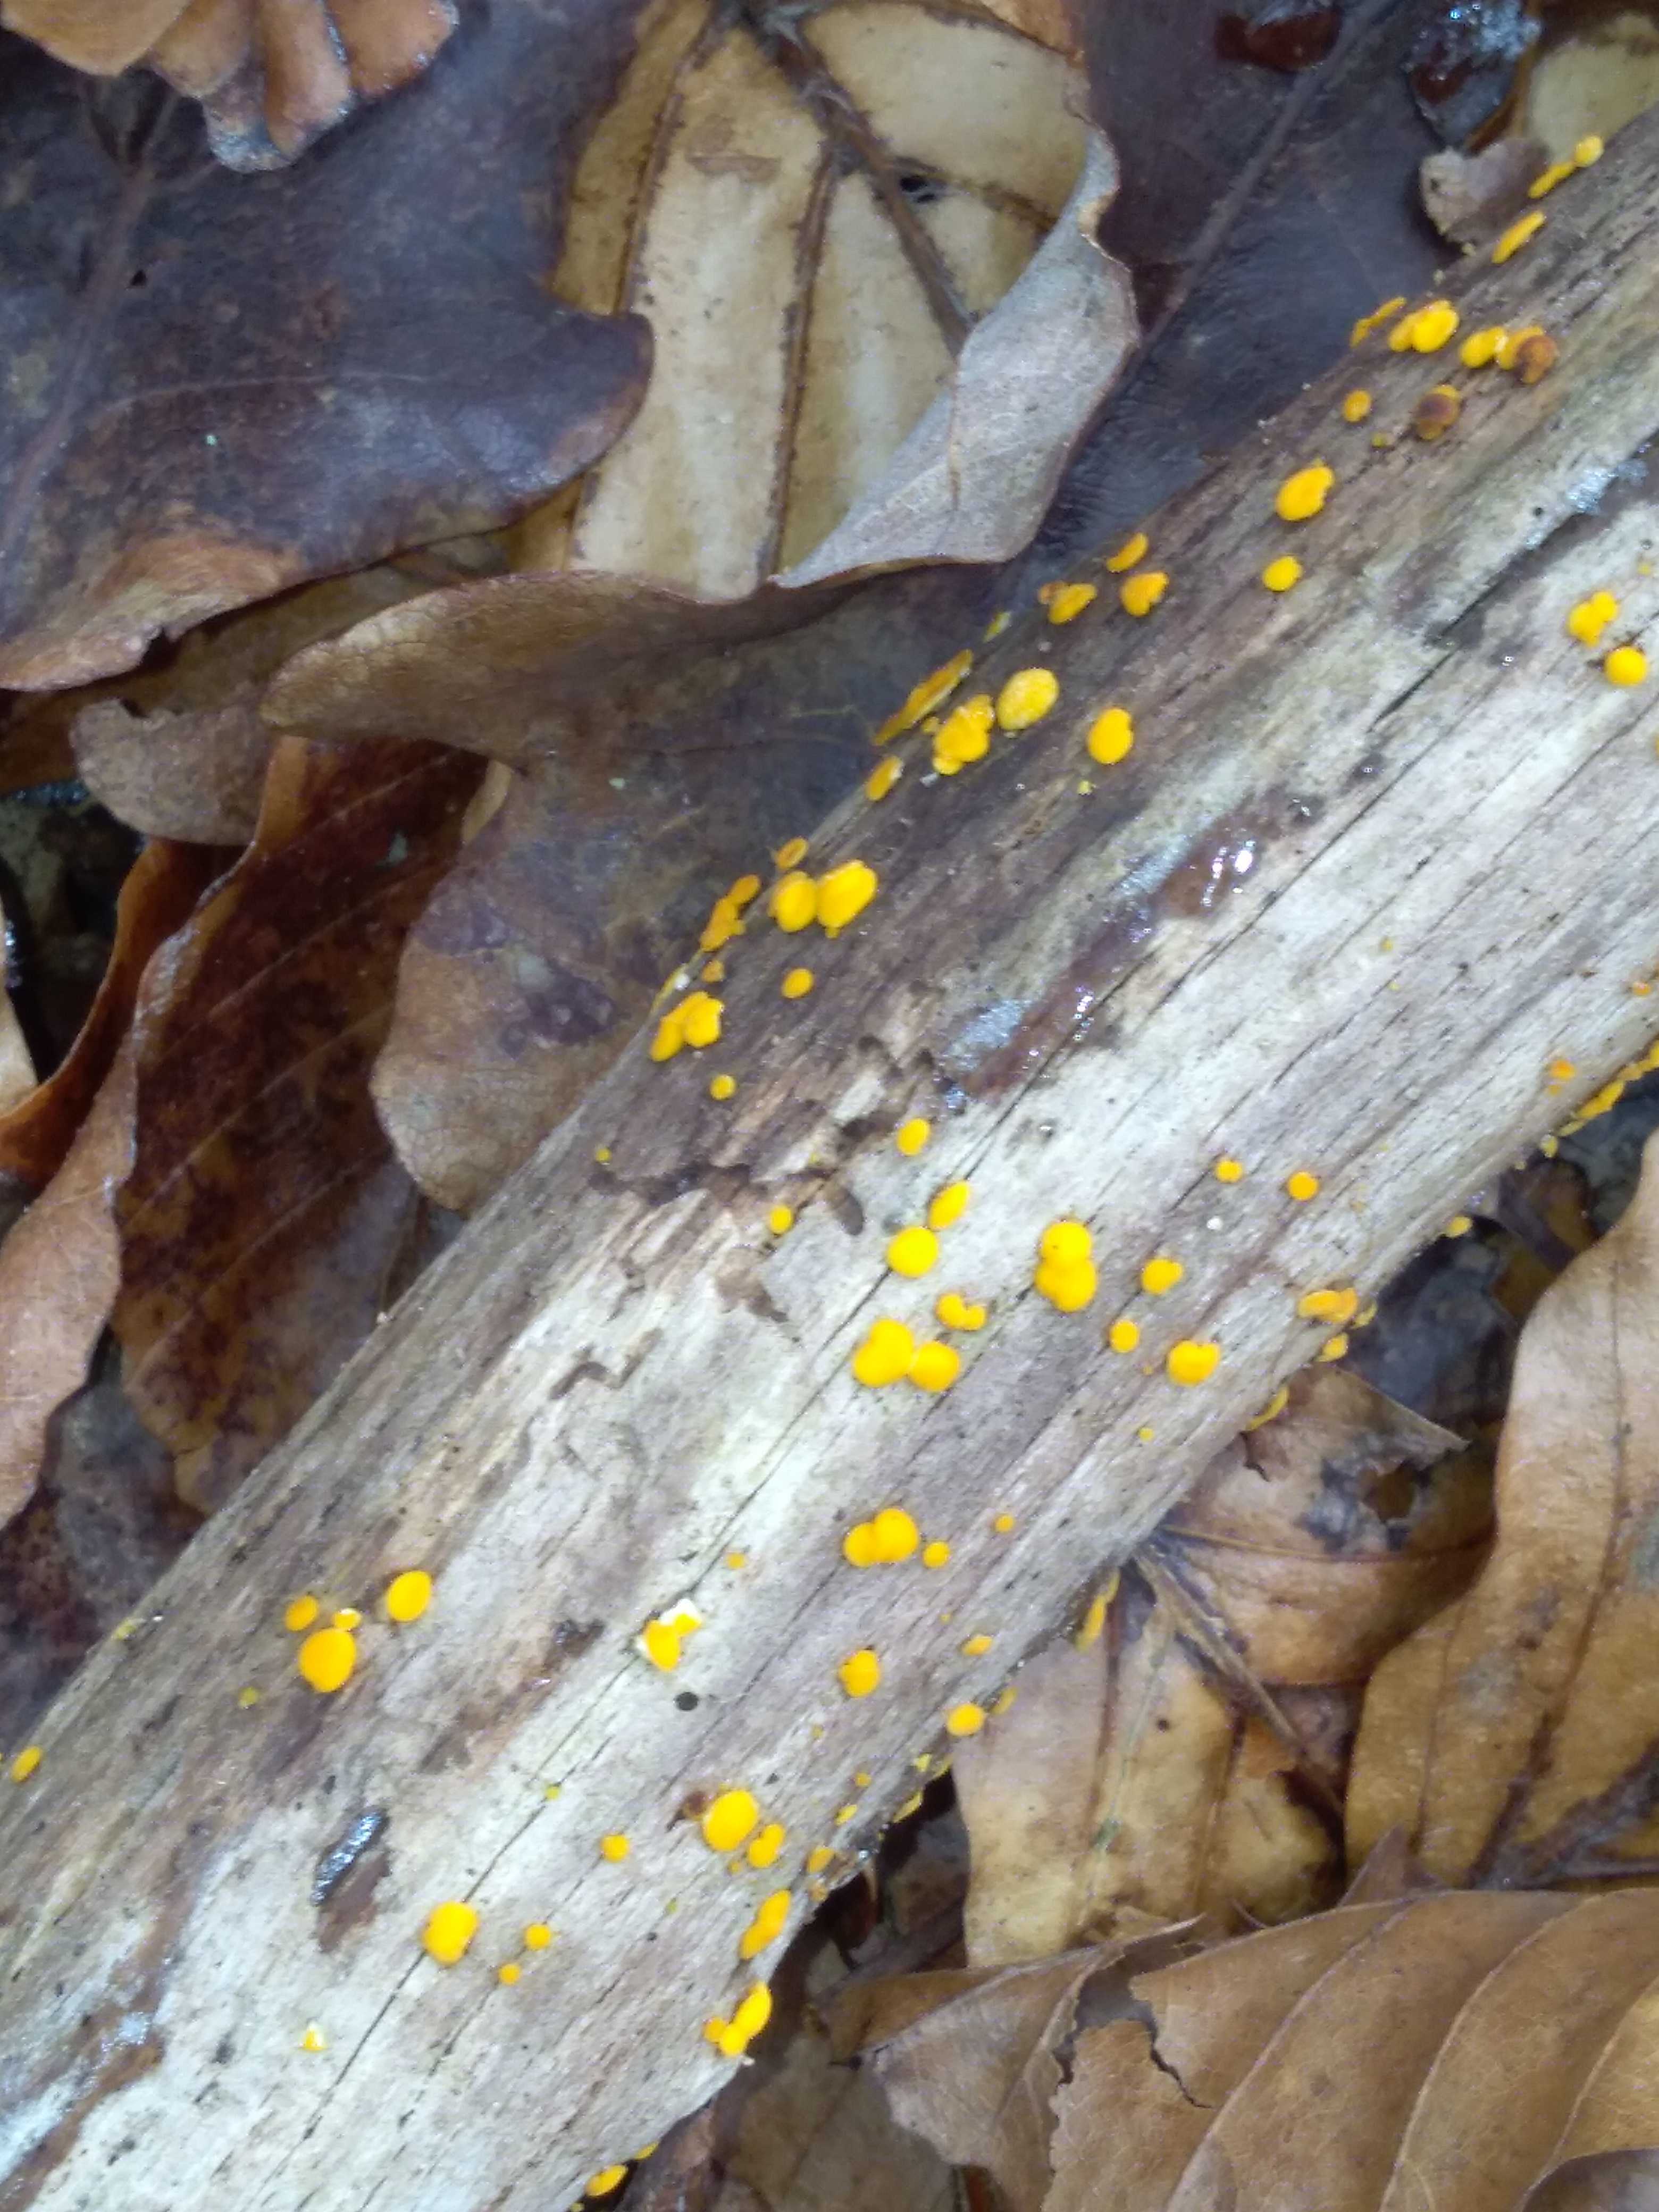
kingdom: Fungi
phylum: Ascomycota
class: Leotiomycetes
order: Helotiales
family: Pezizellaceae
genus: Calycina
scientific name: Calycina citrina
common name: almindelig gulskive
